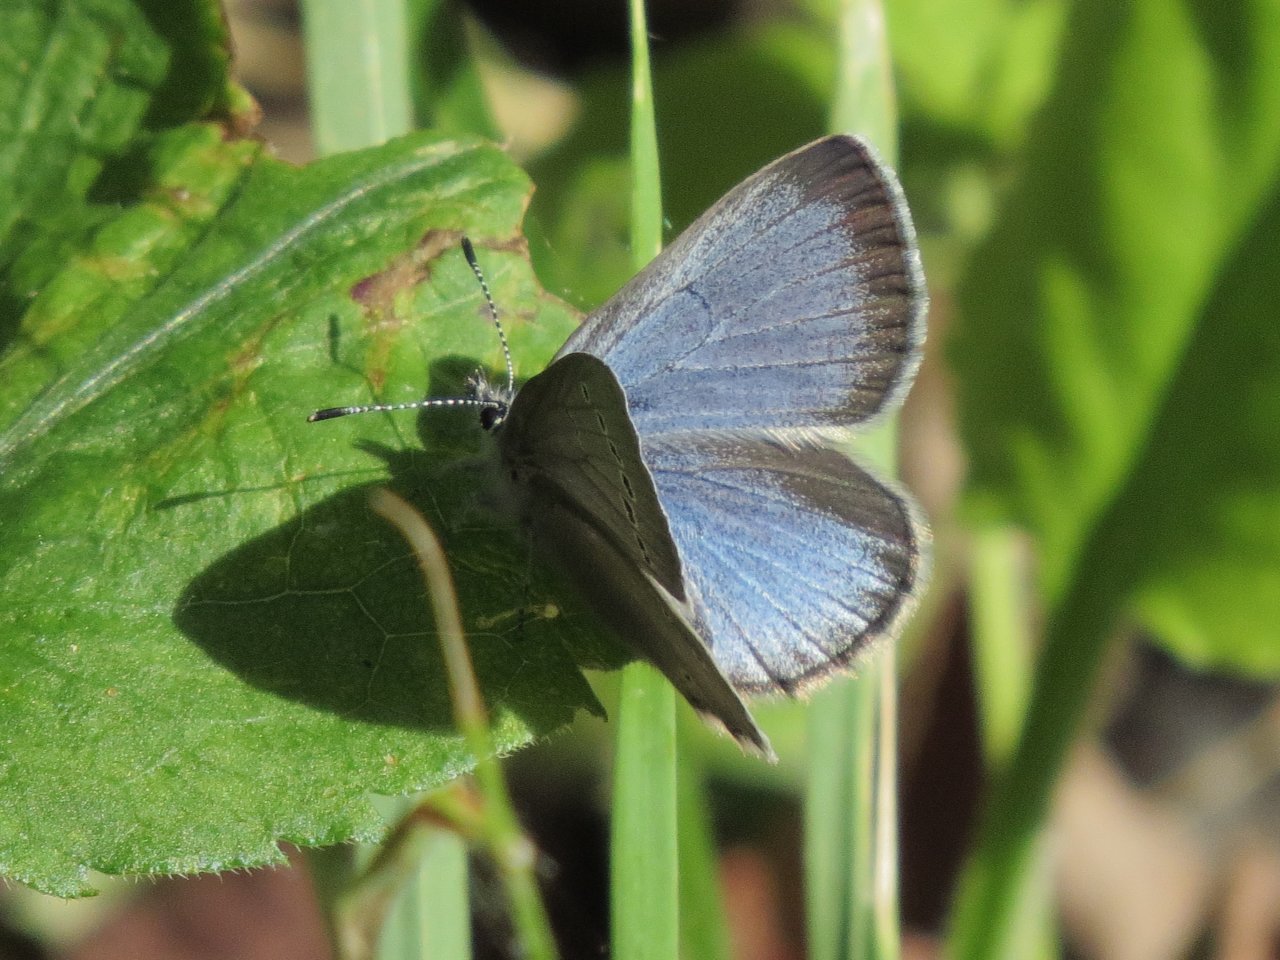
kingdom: Animalia
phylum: Arthropoda
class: Insecta
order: Lepidoptera
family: Lycaenidae
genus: Glaucopsyche
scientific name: Glaucopsyche lygdamus
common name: Silvery Blue
